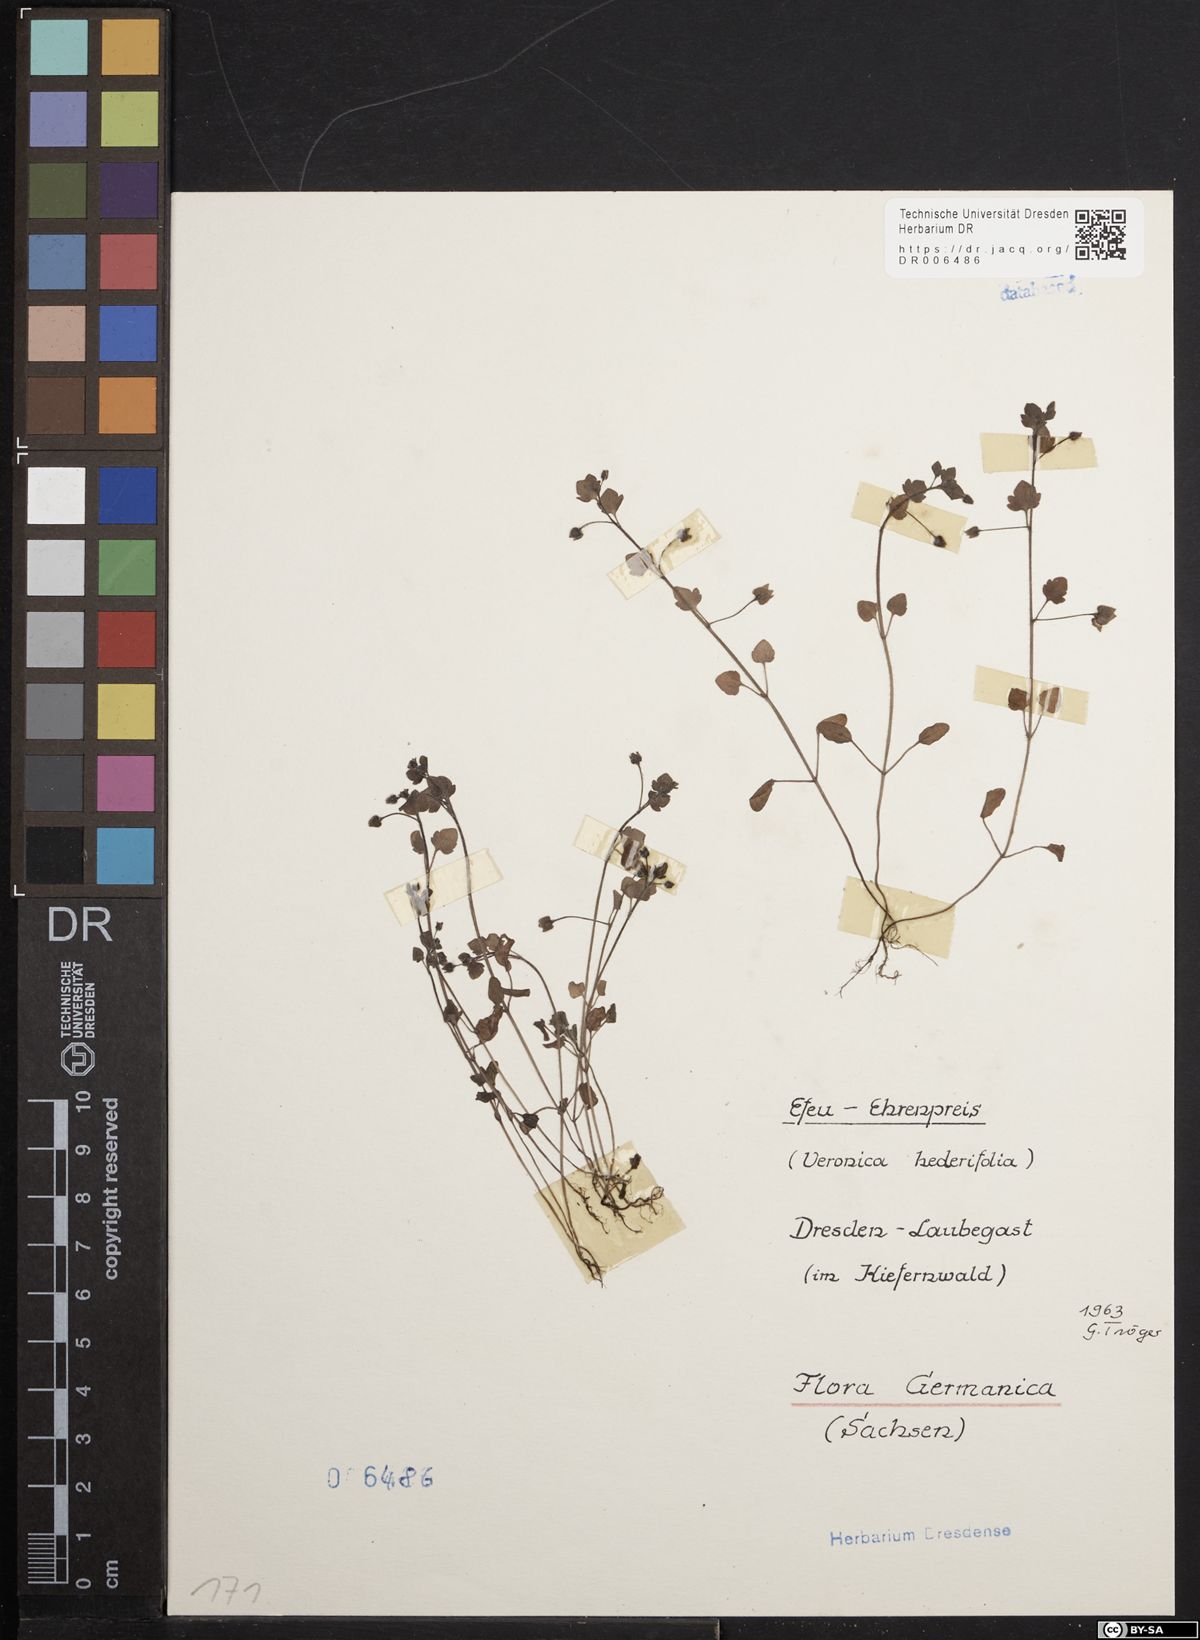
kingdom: Plantae
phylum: Tracheophyta
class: Magnoliopsida
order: Lamiales
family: Plantaginaceae
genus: Veronica
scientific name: Veronica hederifolia
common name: Ivy-leaved speedwell
